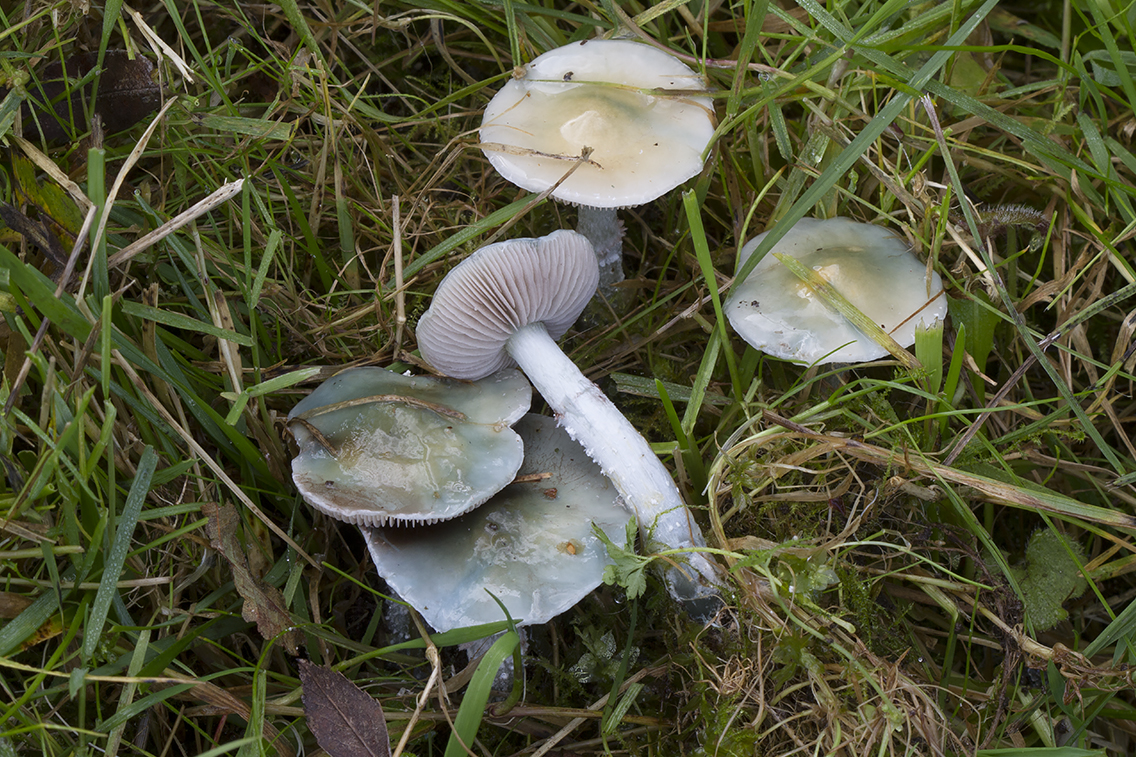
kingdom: Fungi
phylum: Basidiomycota
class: Agaricomycetes
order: Agaricales
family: Strophariaceae
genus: Stropharia
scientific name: Stropharia pseudocyanea
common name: blegblå bredblad
